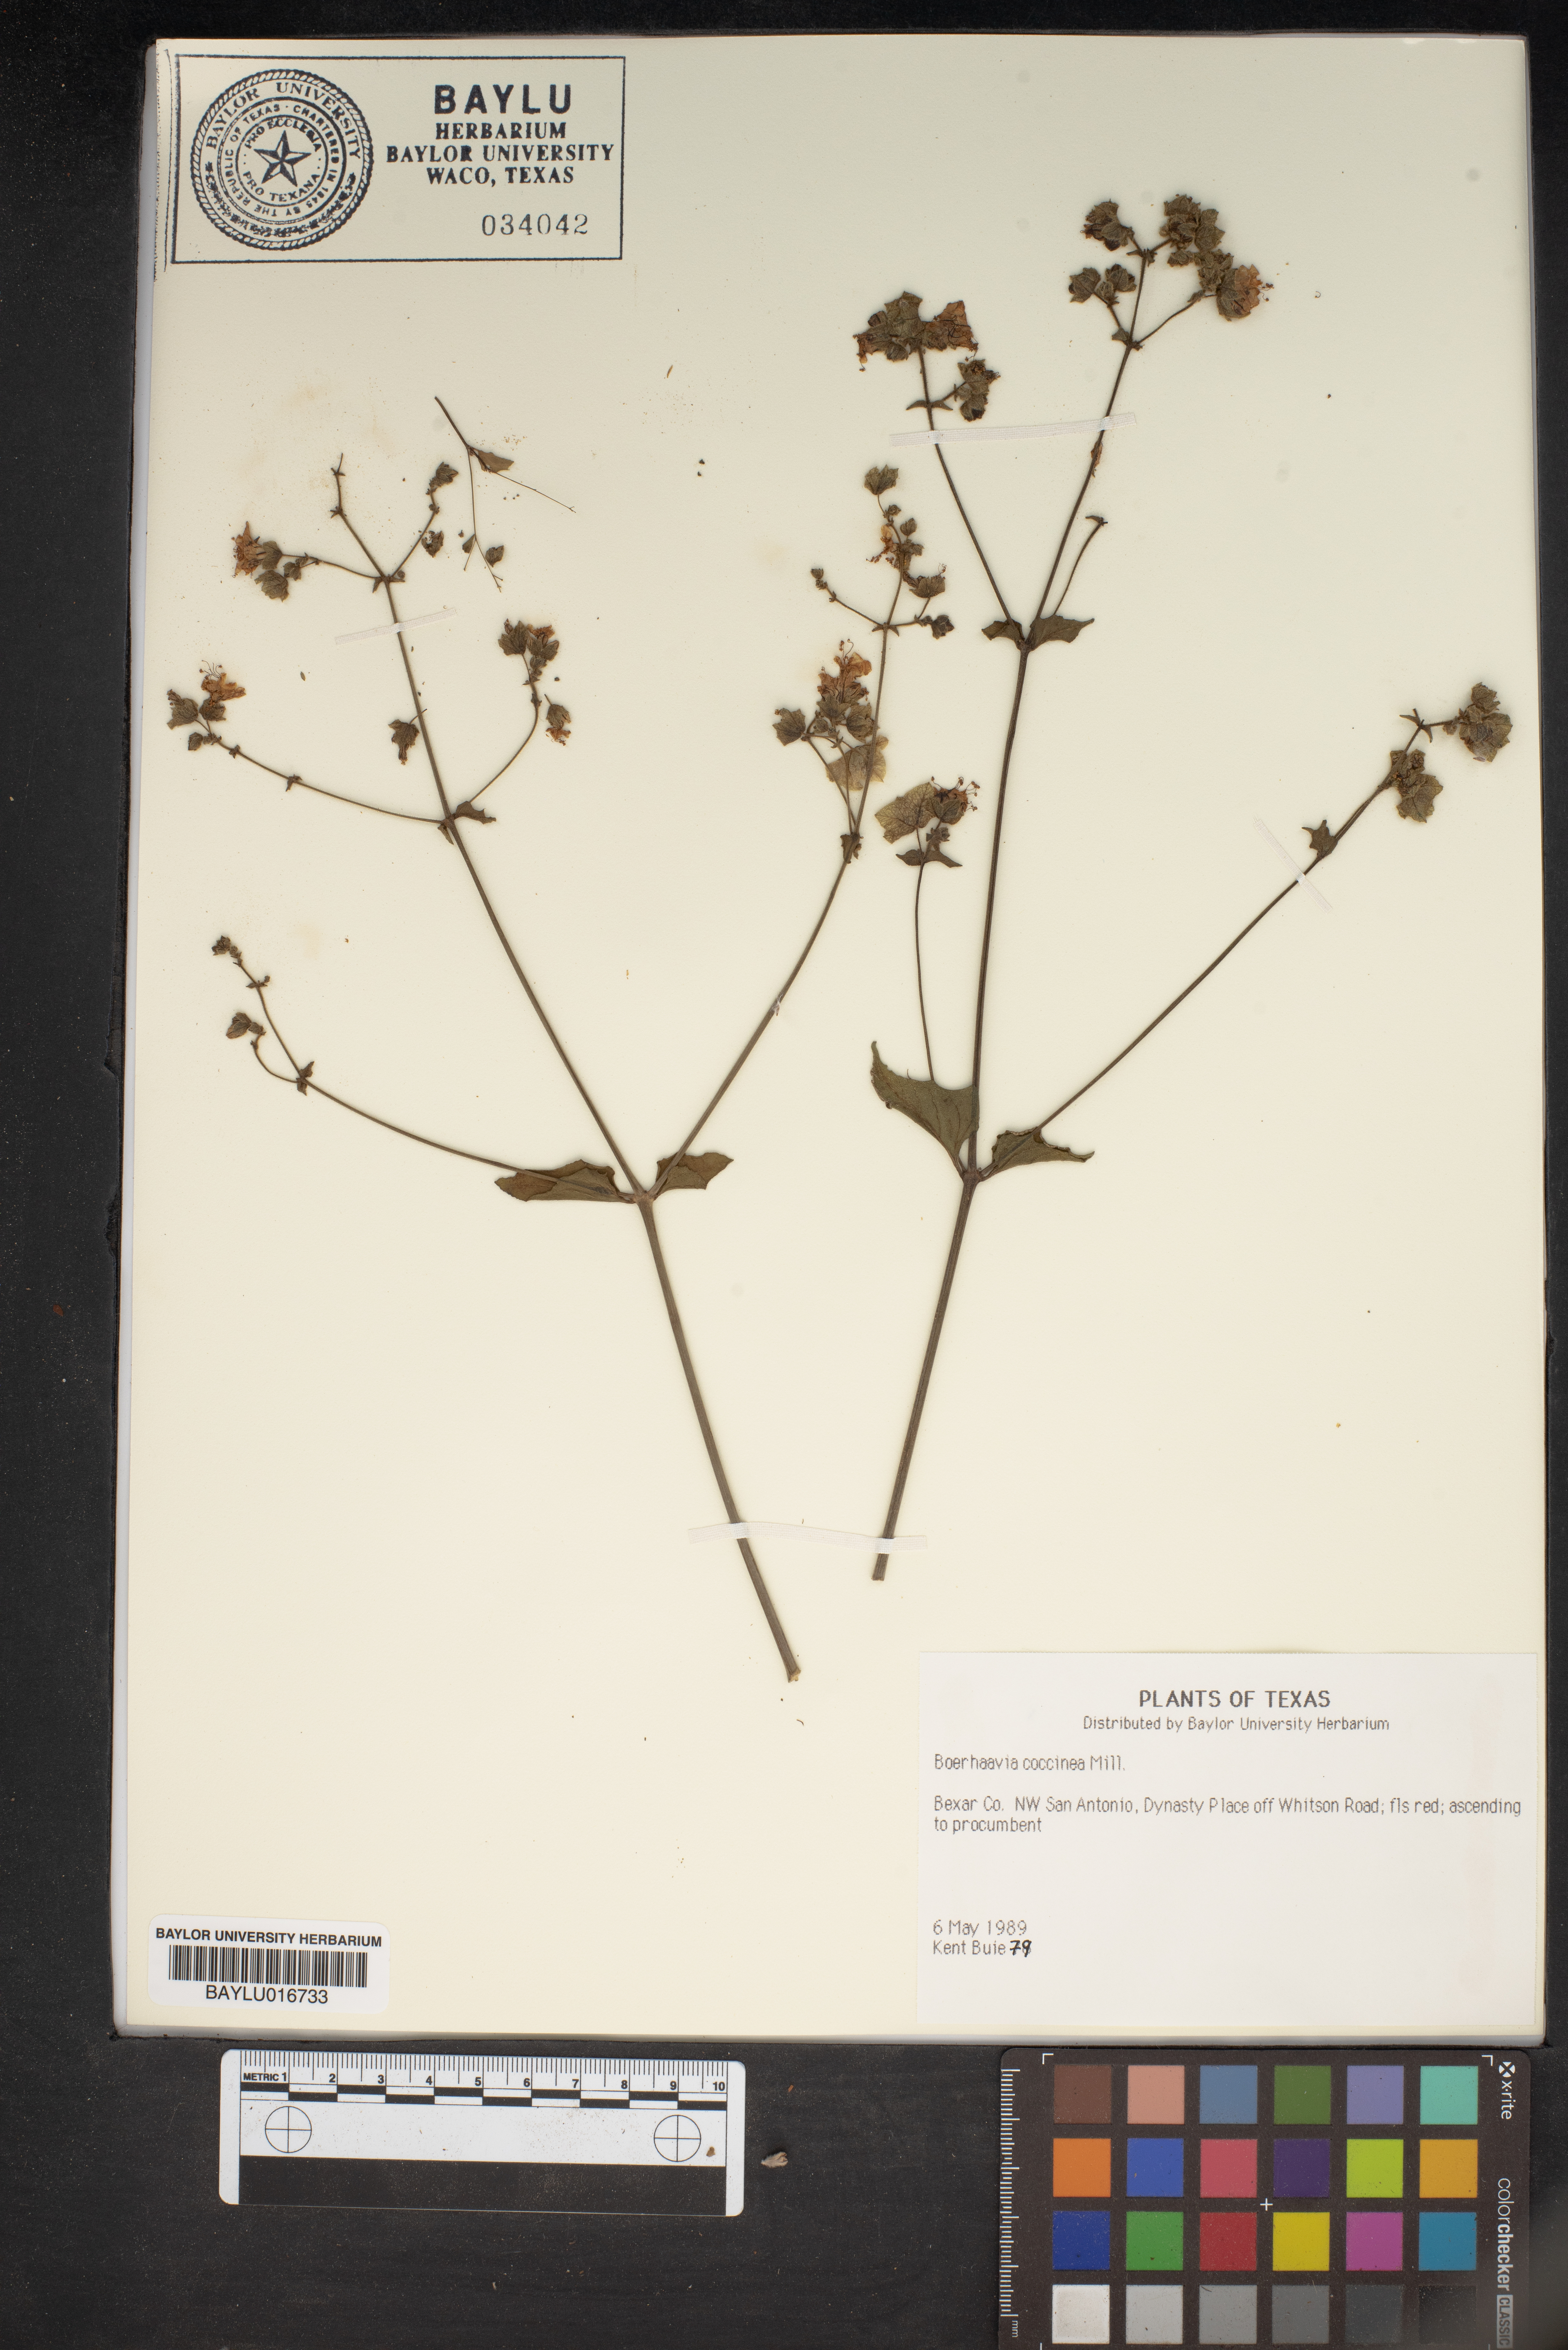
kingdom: Plantae
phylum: Tracheophyta
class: Magnoliopsida
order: Caryophyllales
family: Nyctaginaceae
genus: Boerhavia
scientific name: Boerhavia coccinea
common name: Scarlet spiderling
